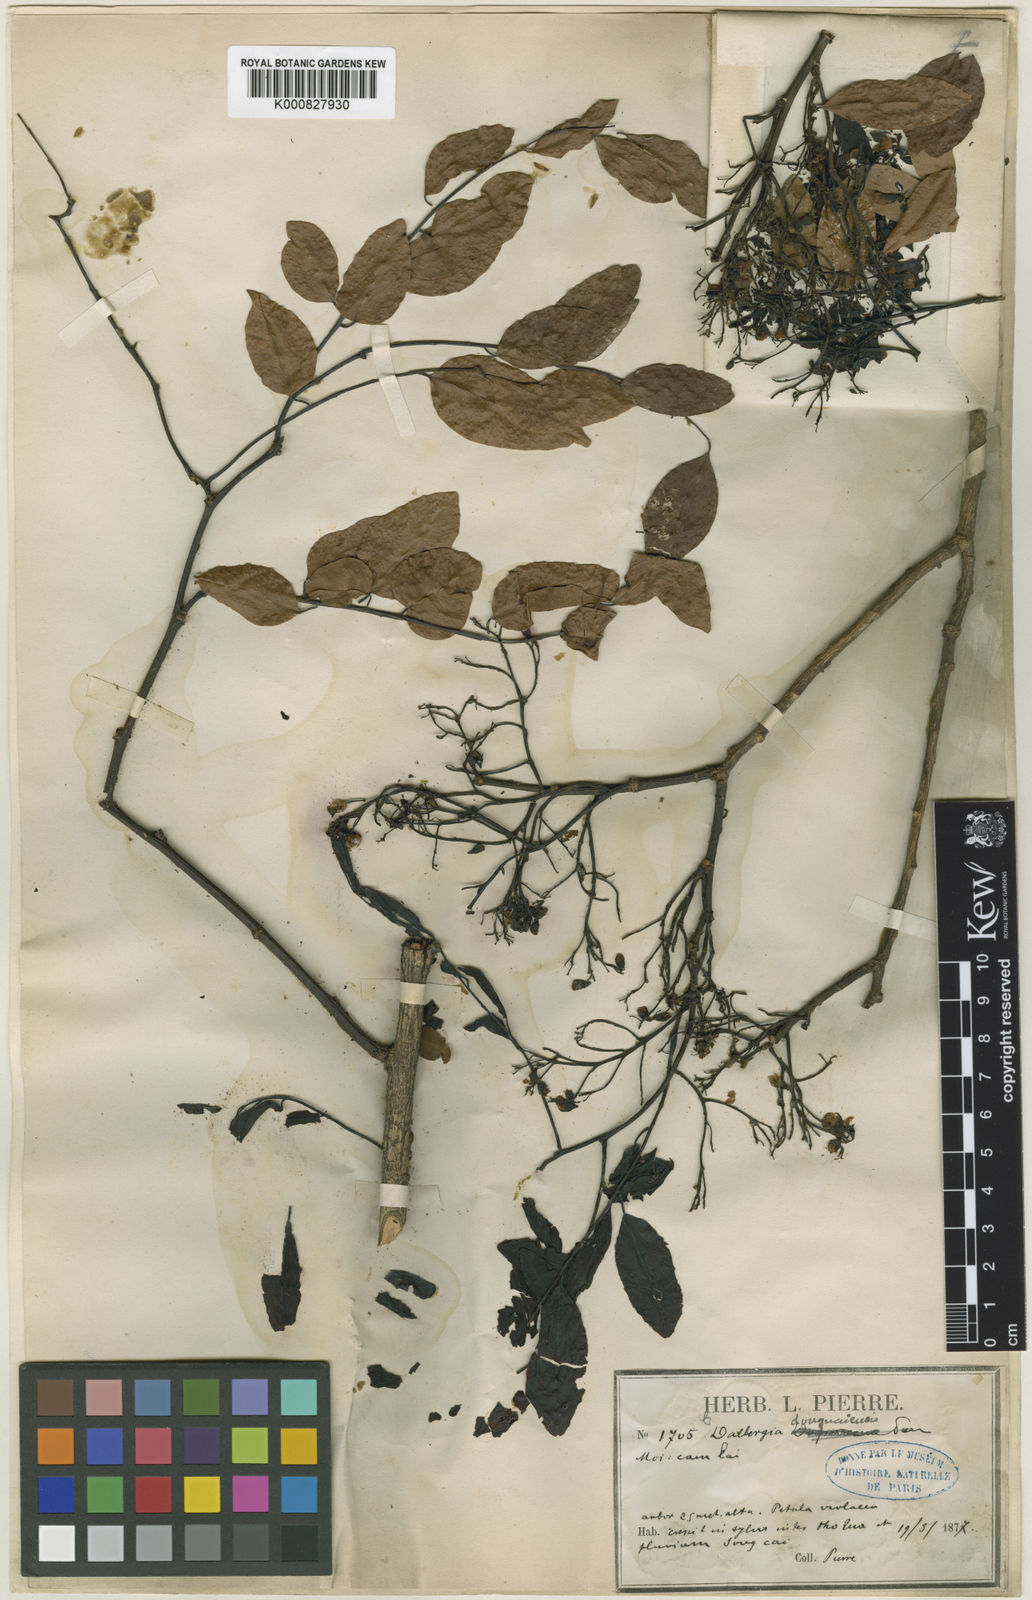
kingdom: Plantae
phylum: Tracheophyta
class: Magnoliopsida
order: Fabales
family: Fabaceae
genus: Dalbergia
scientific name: Dalbergia oliveri
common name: Burmese rosewood
